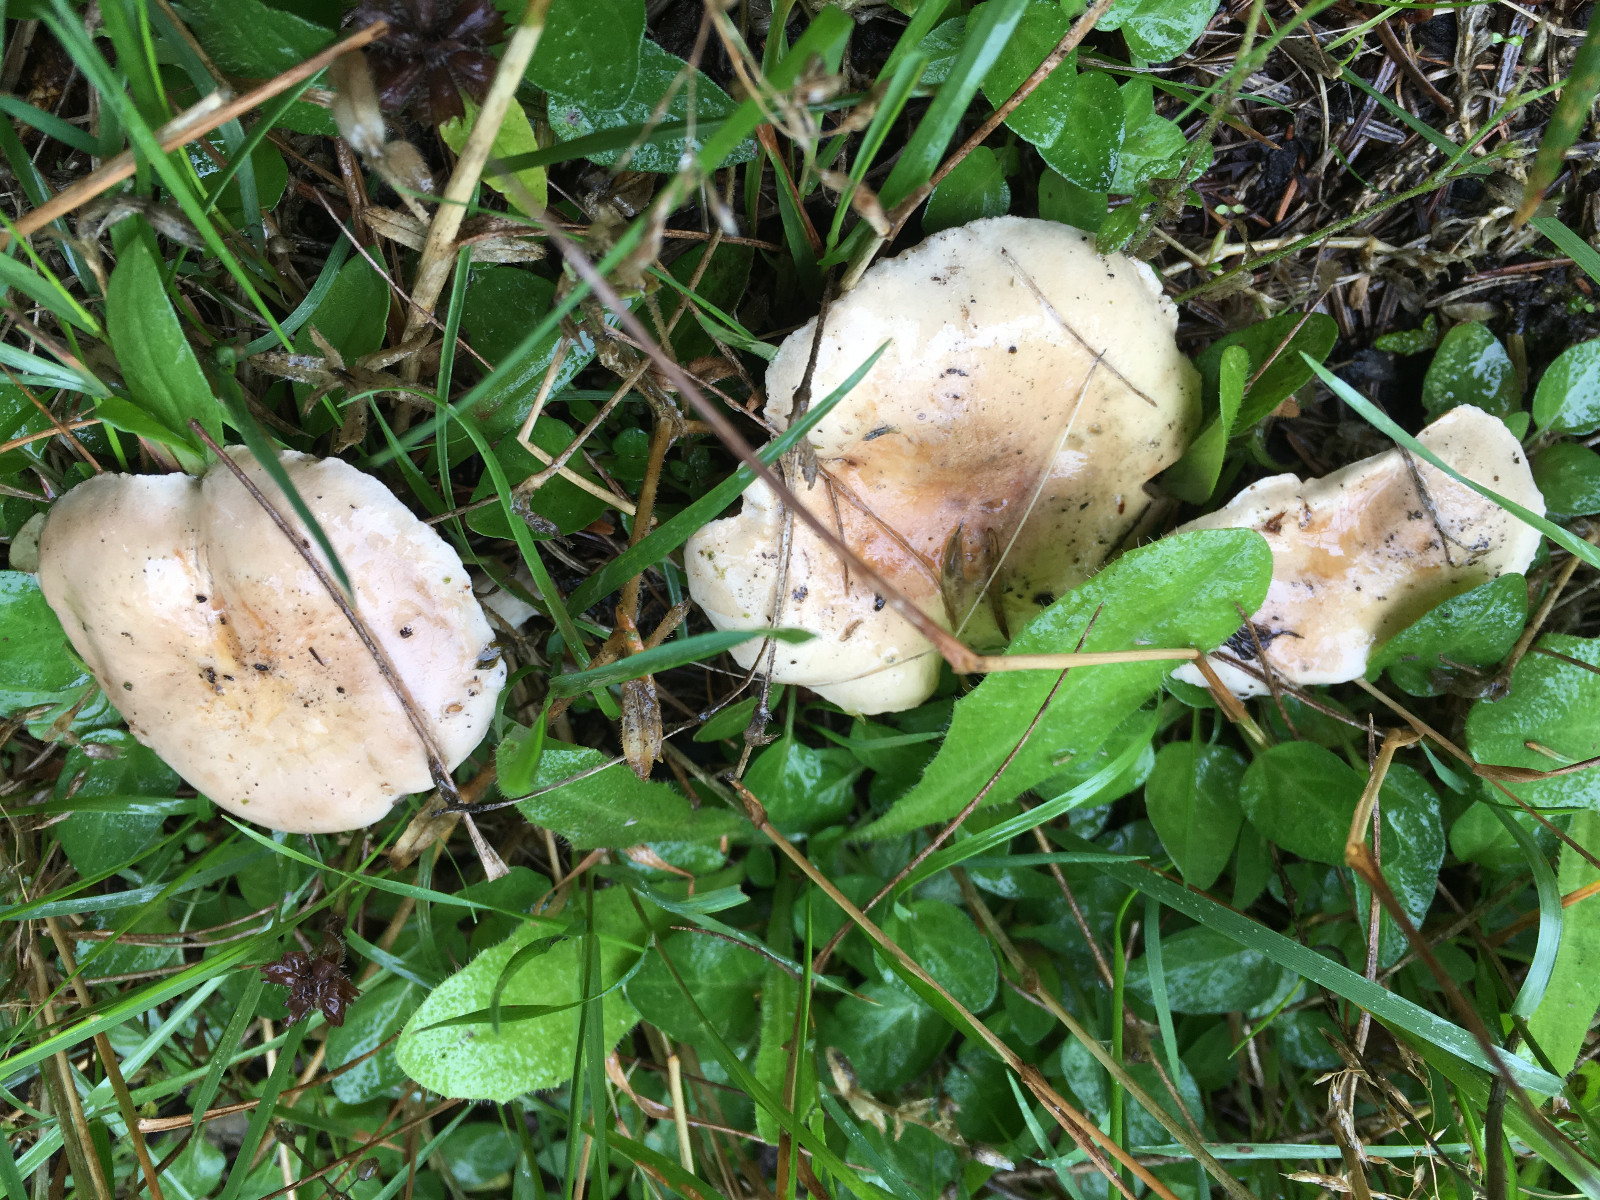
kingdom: Fungi
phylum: Basidiomycota
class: Agaricomycetes
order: Agaricales
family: Hymenogastraceae
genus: Hebeloma
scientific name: Hebeloma
